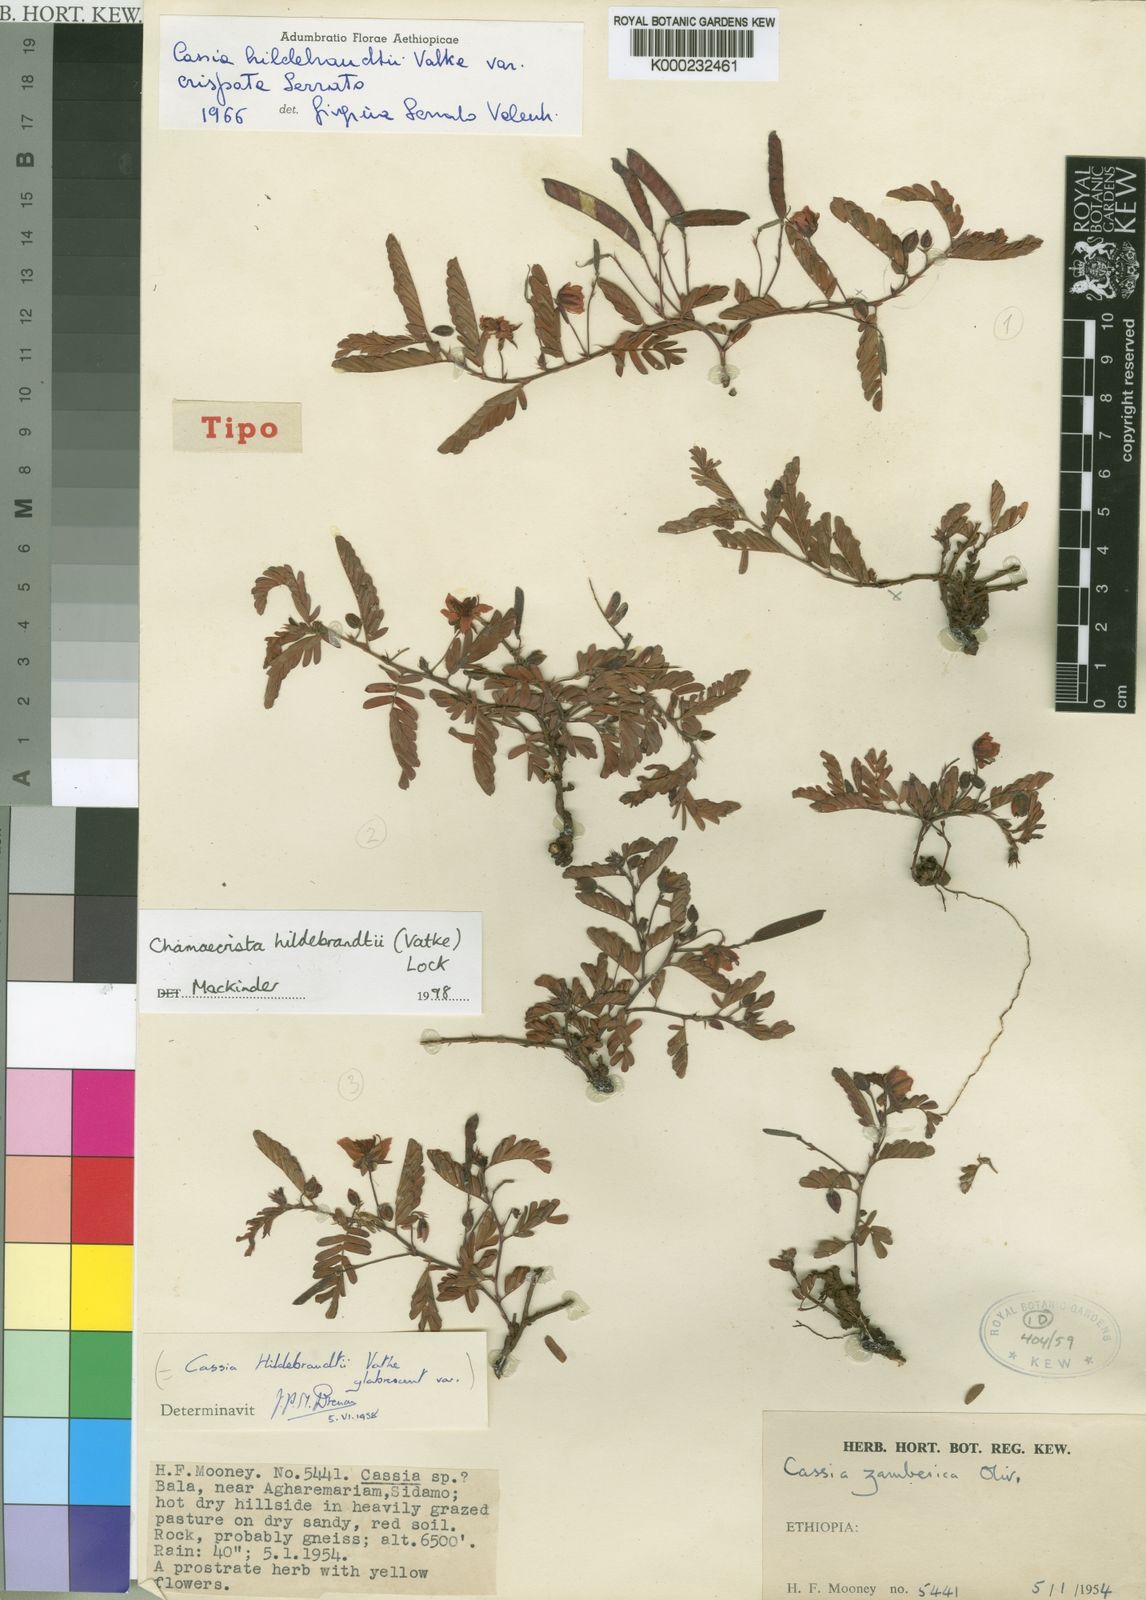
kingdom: Plantae
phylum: Tracheophyta
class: Magnoliopsida
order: Fabales
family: Fabaceae
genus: Chamaecrista
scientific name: Chamaecrista hildebrandtii
